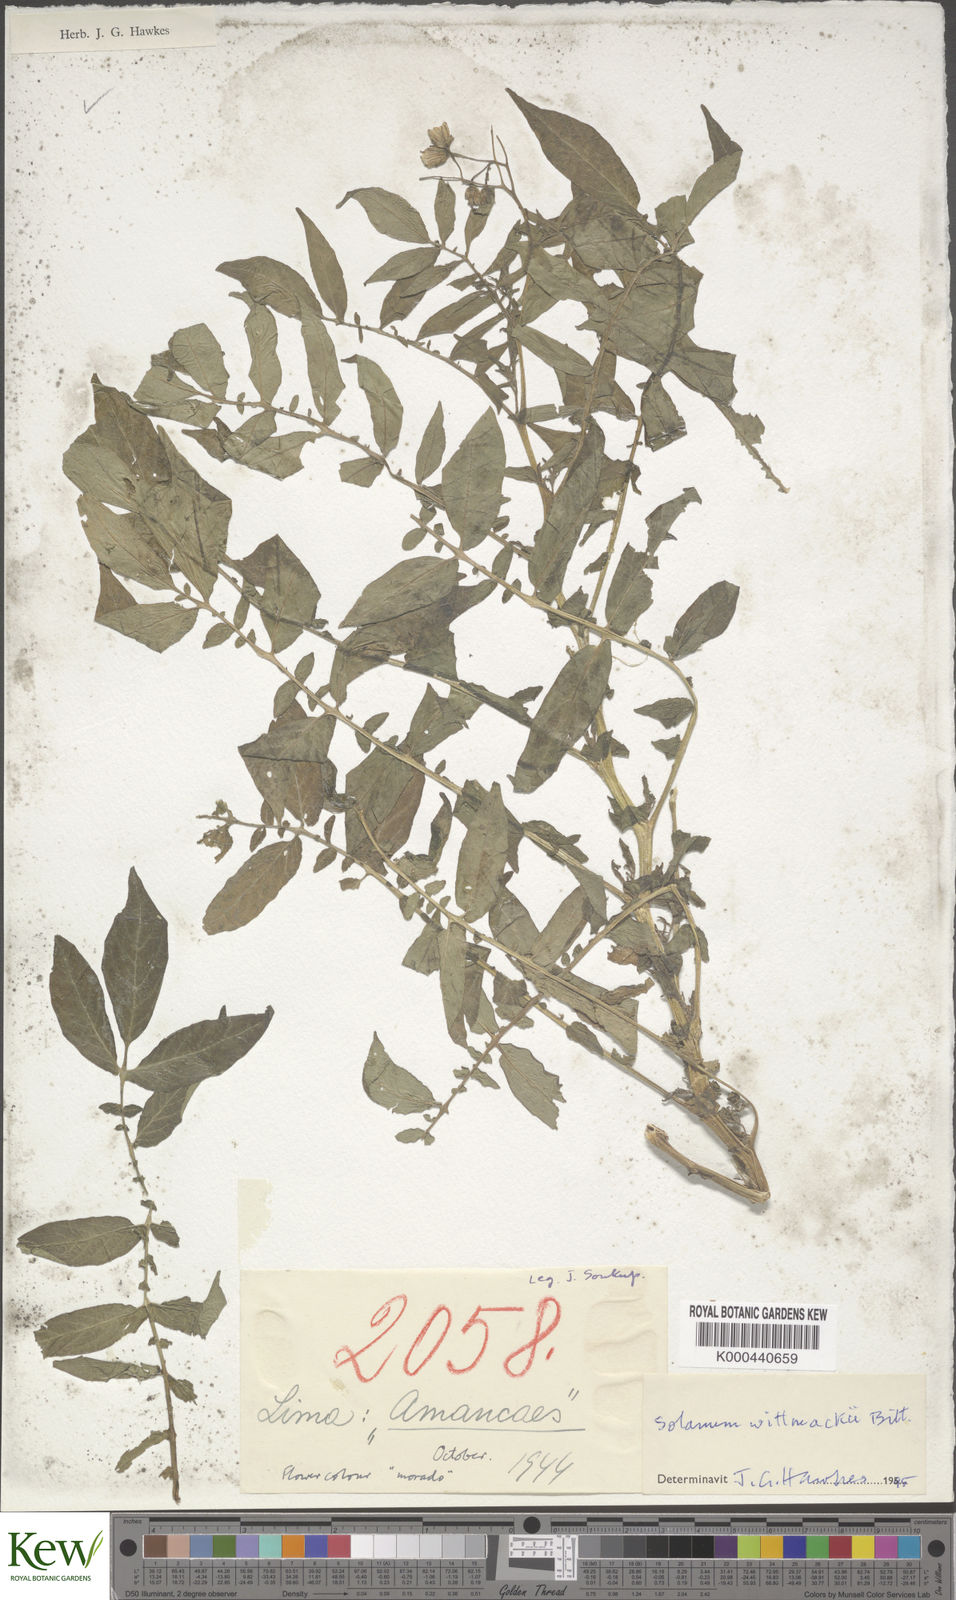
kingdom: Plantae
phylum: Tracheophyta
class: Magnoliopsida
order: Solanales
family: Solanaceae
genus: Solanum
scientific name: Solanum wittmackii
